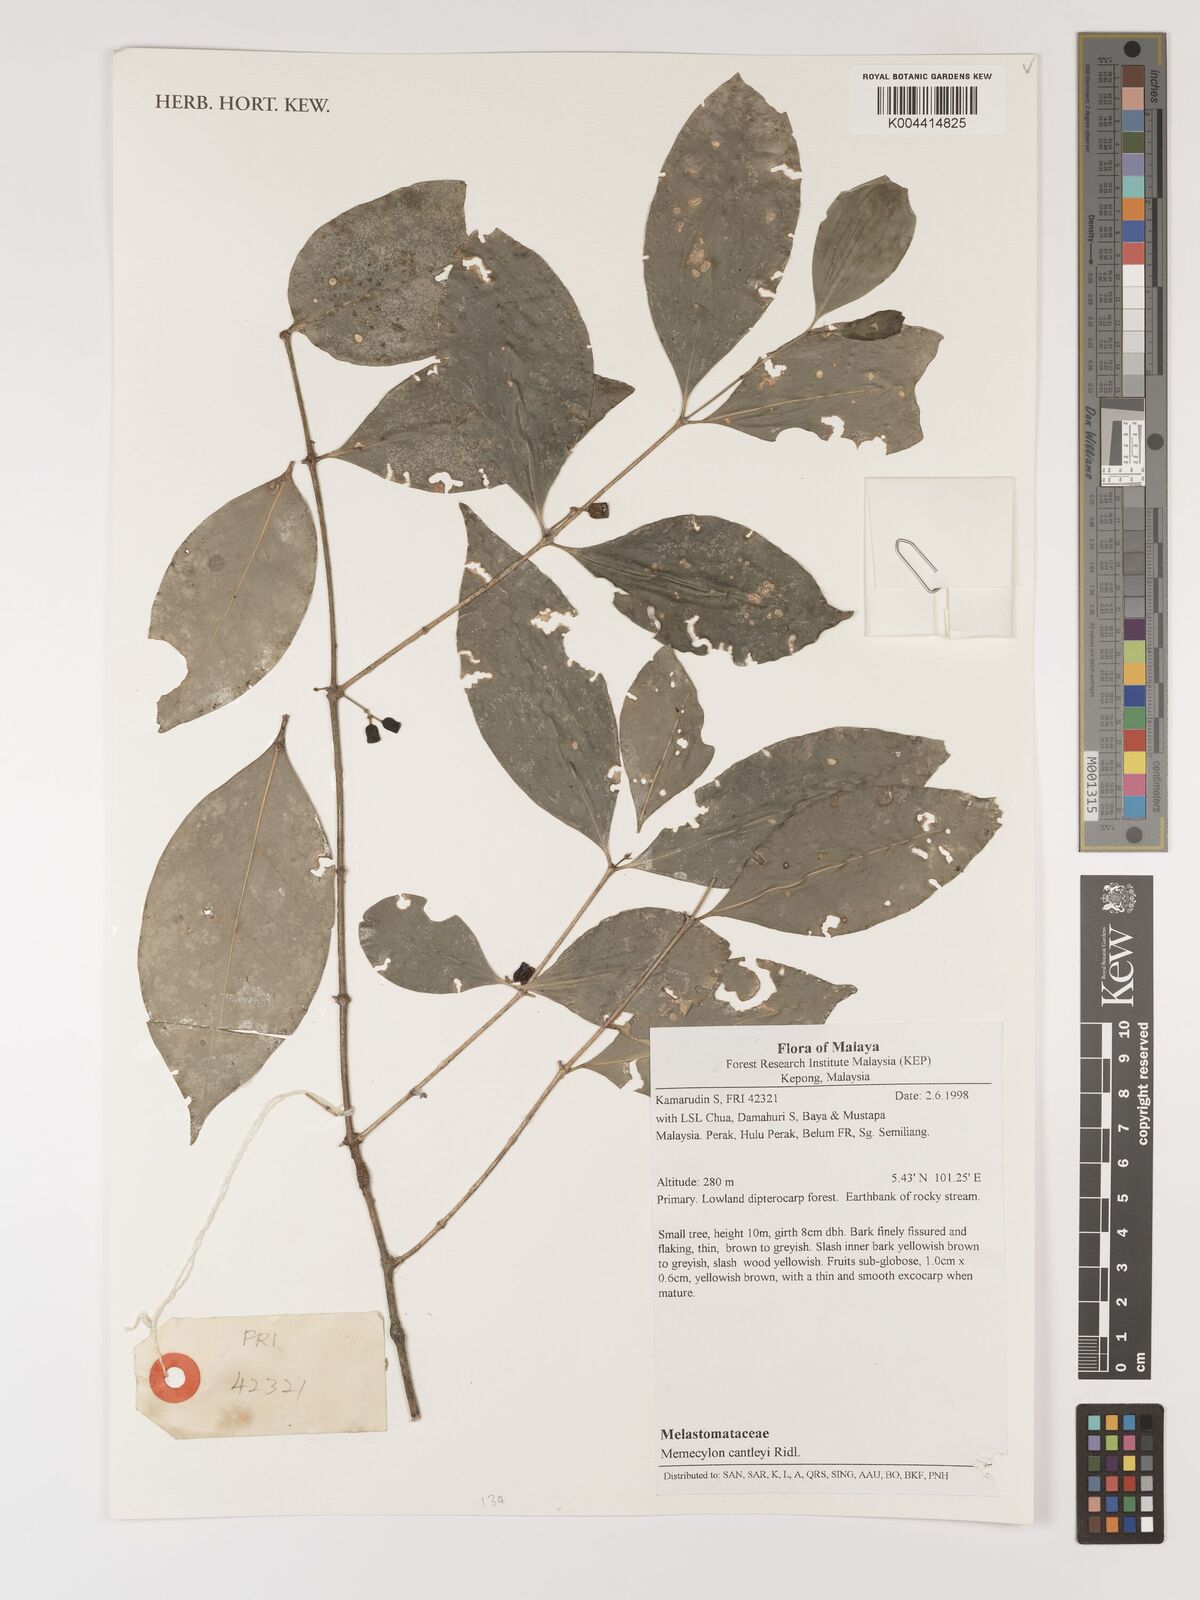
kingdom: Plantae
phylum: Tracheophyta
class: Magnoliopsida
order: Myrtales
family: Melastomataceae
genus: Memecylon
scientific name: Memecylon cantleyi
